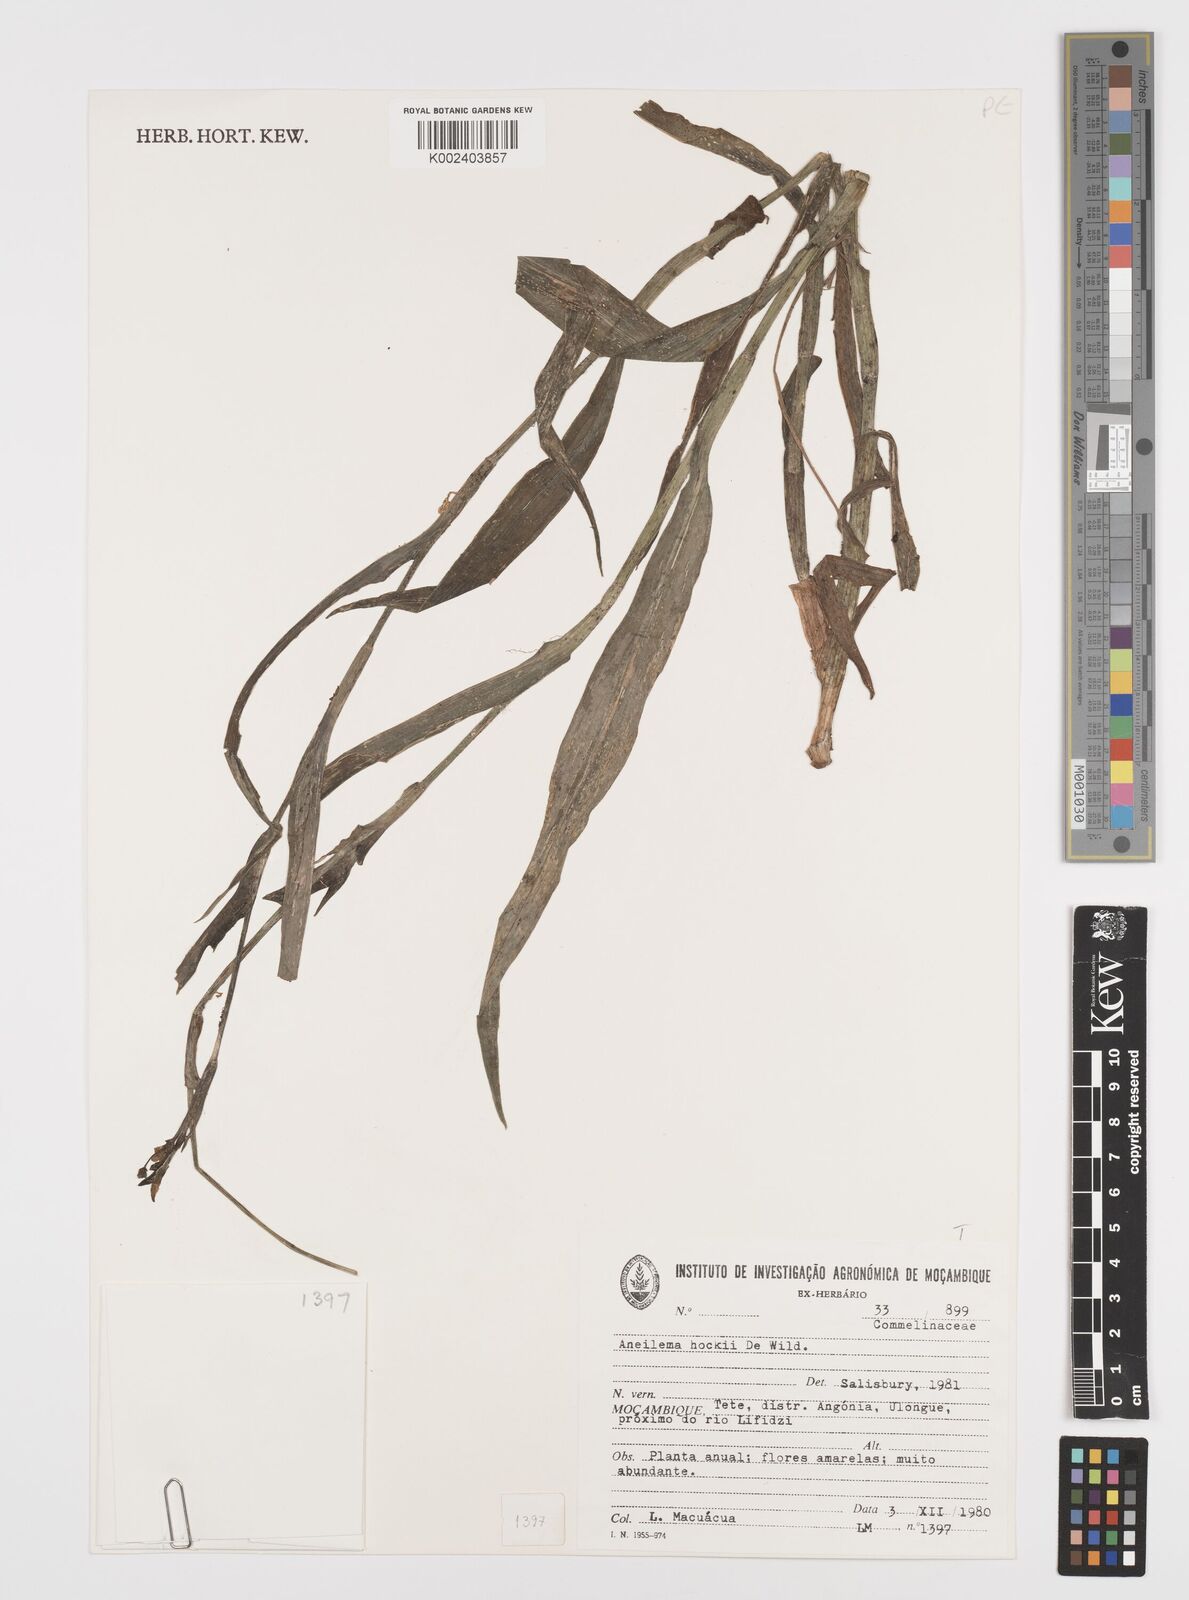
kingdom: Plantae
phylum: Tracheophyta
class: Liliopsida
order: Commelinales
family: Commelinaceae
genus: Aneilema
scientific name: Aneilema hockii
